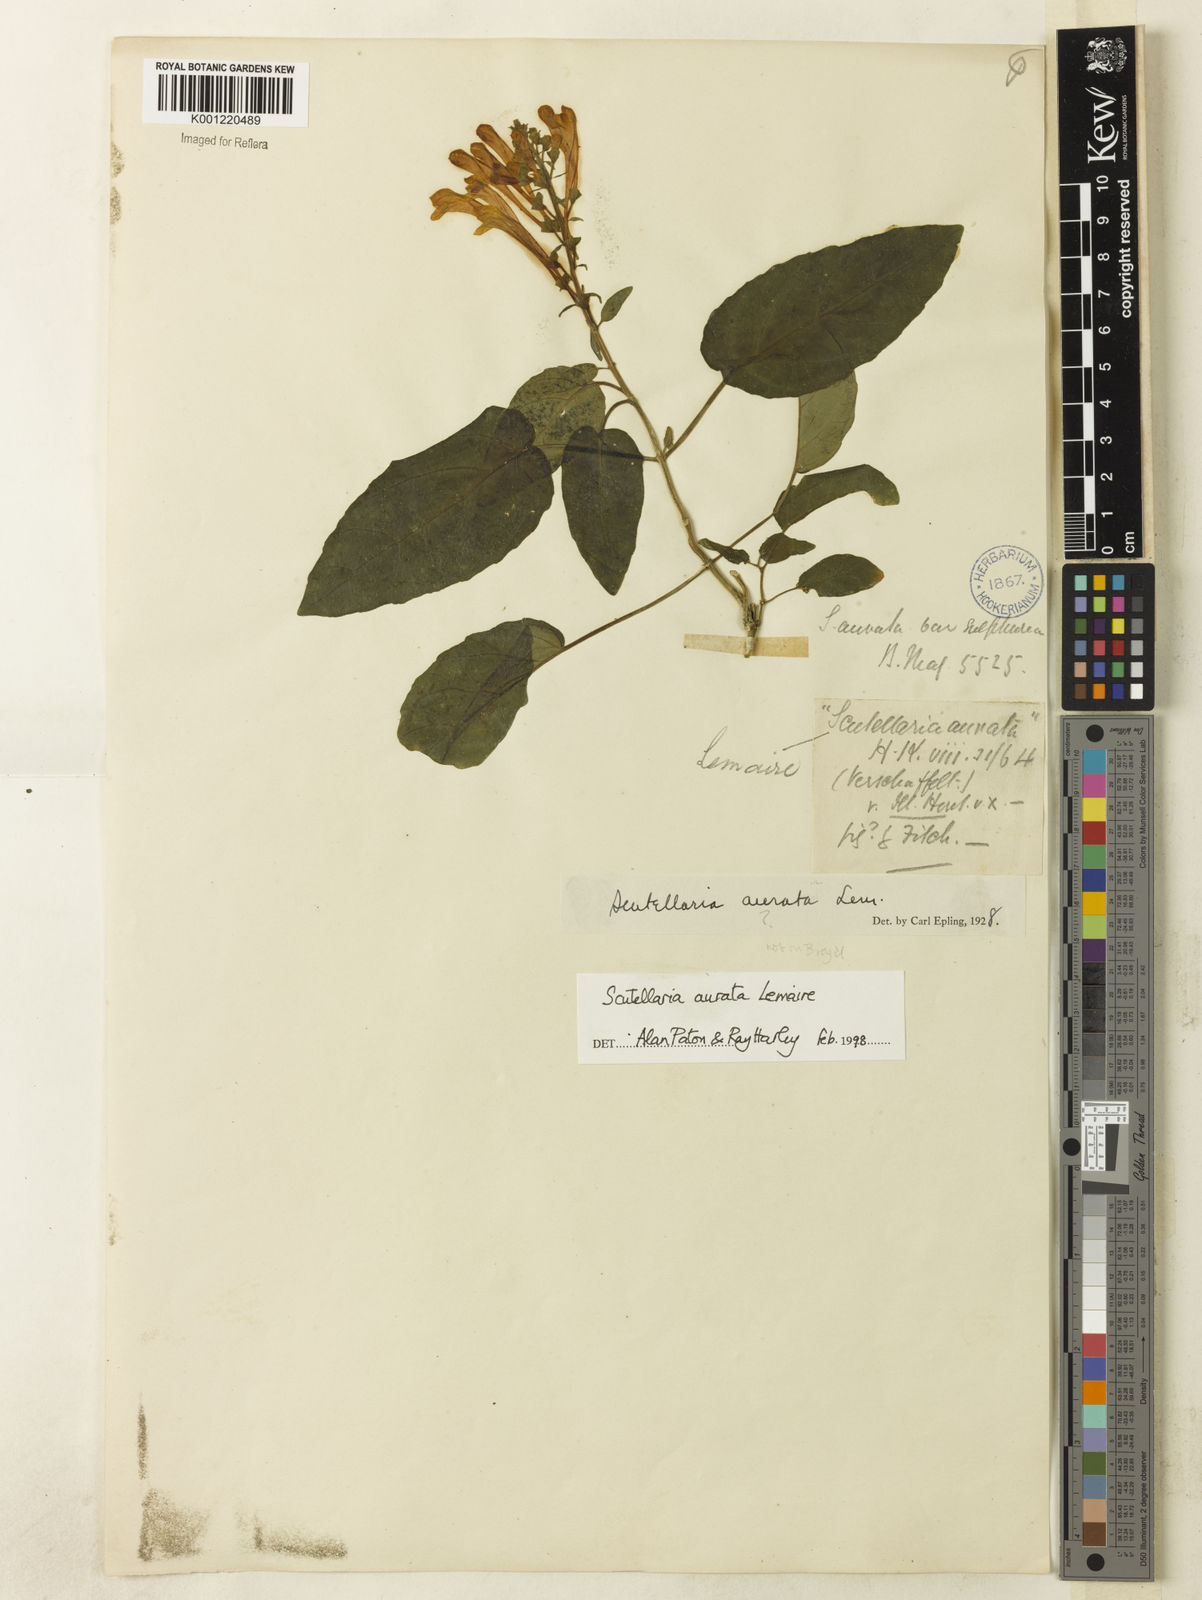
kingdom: Plantae
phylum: Tracheophyta
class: Magnoliopsida
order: Lamiales
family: Lamiaceae
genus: Scutellaria
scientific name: Scutellaria aurata
